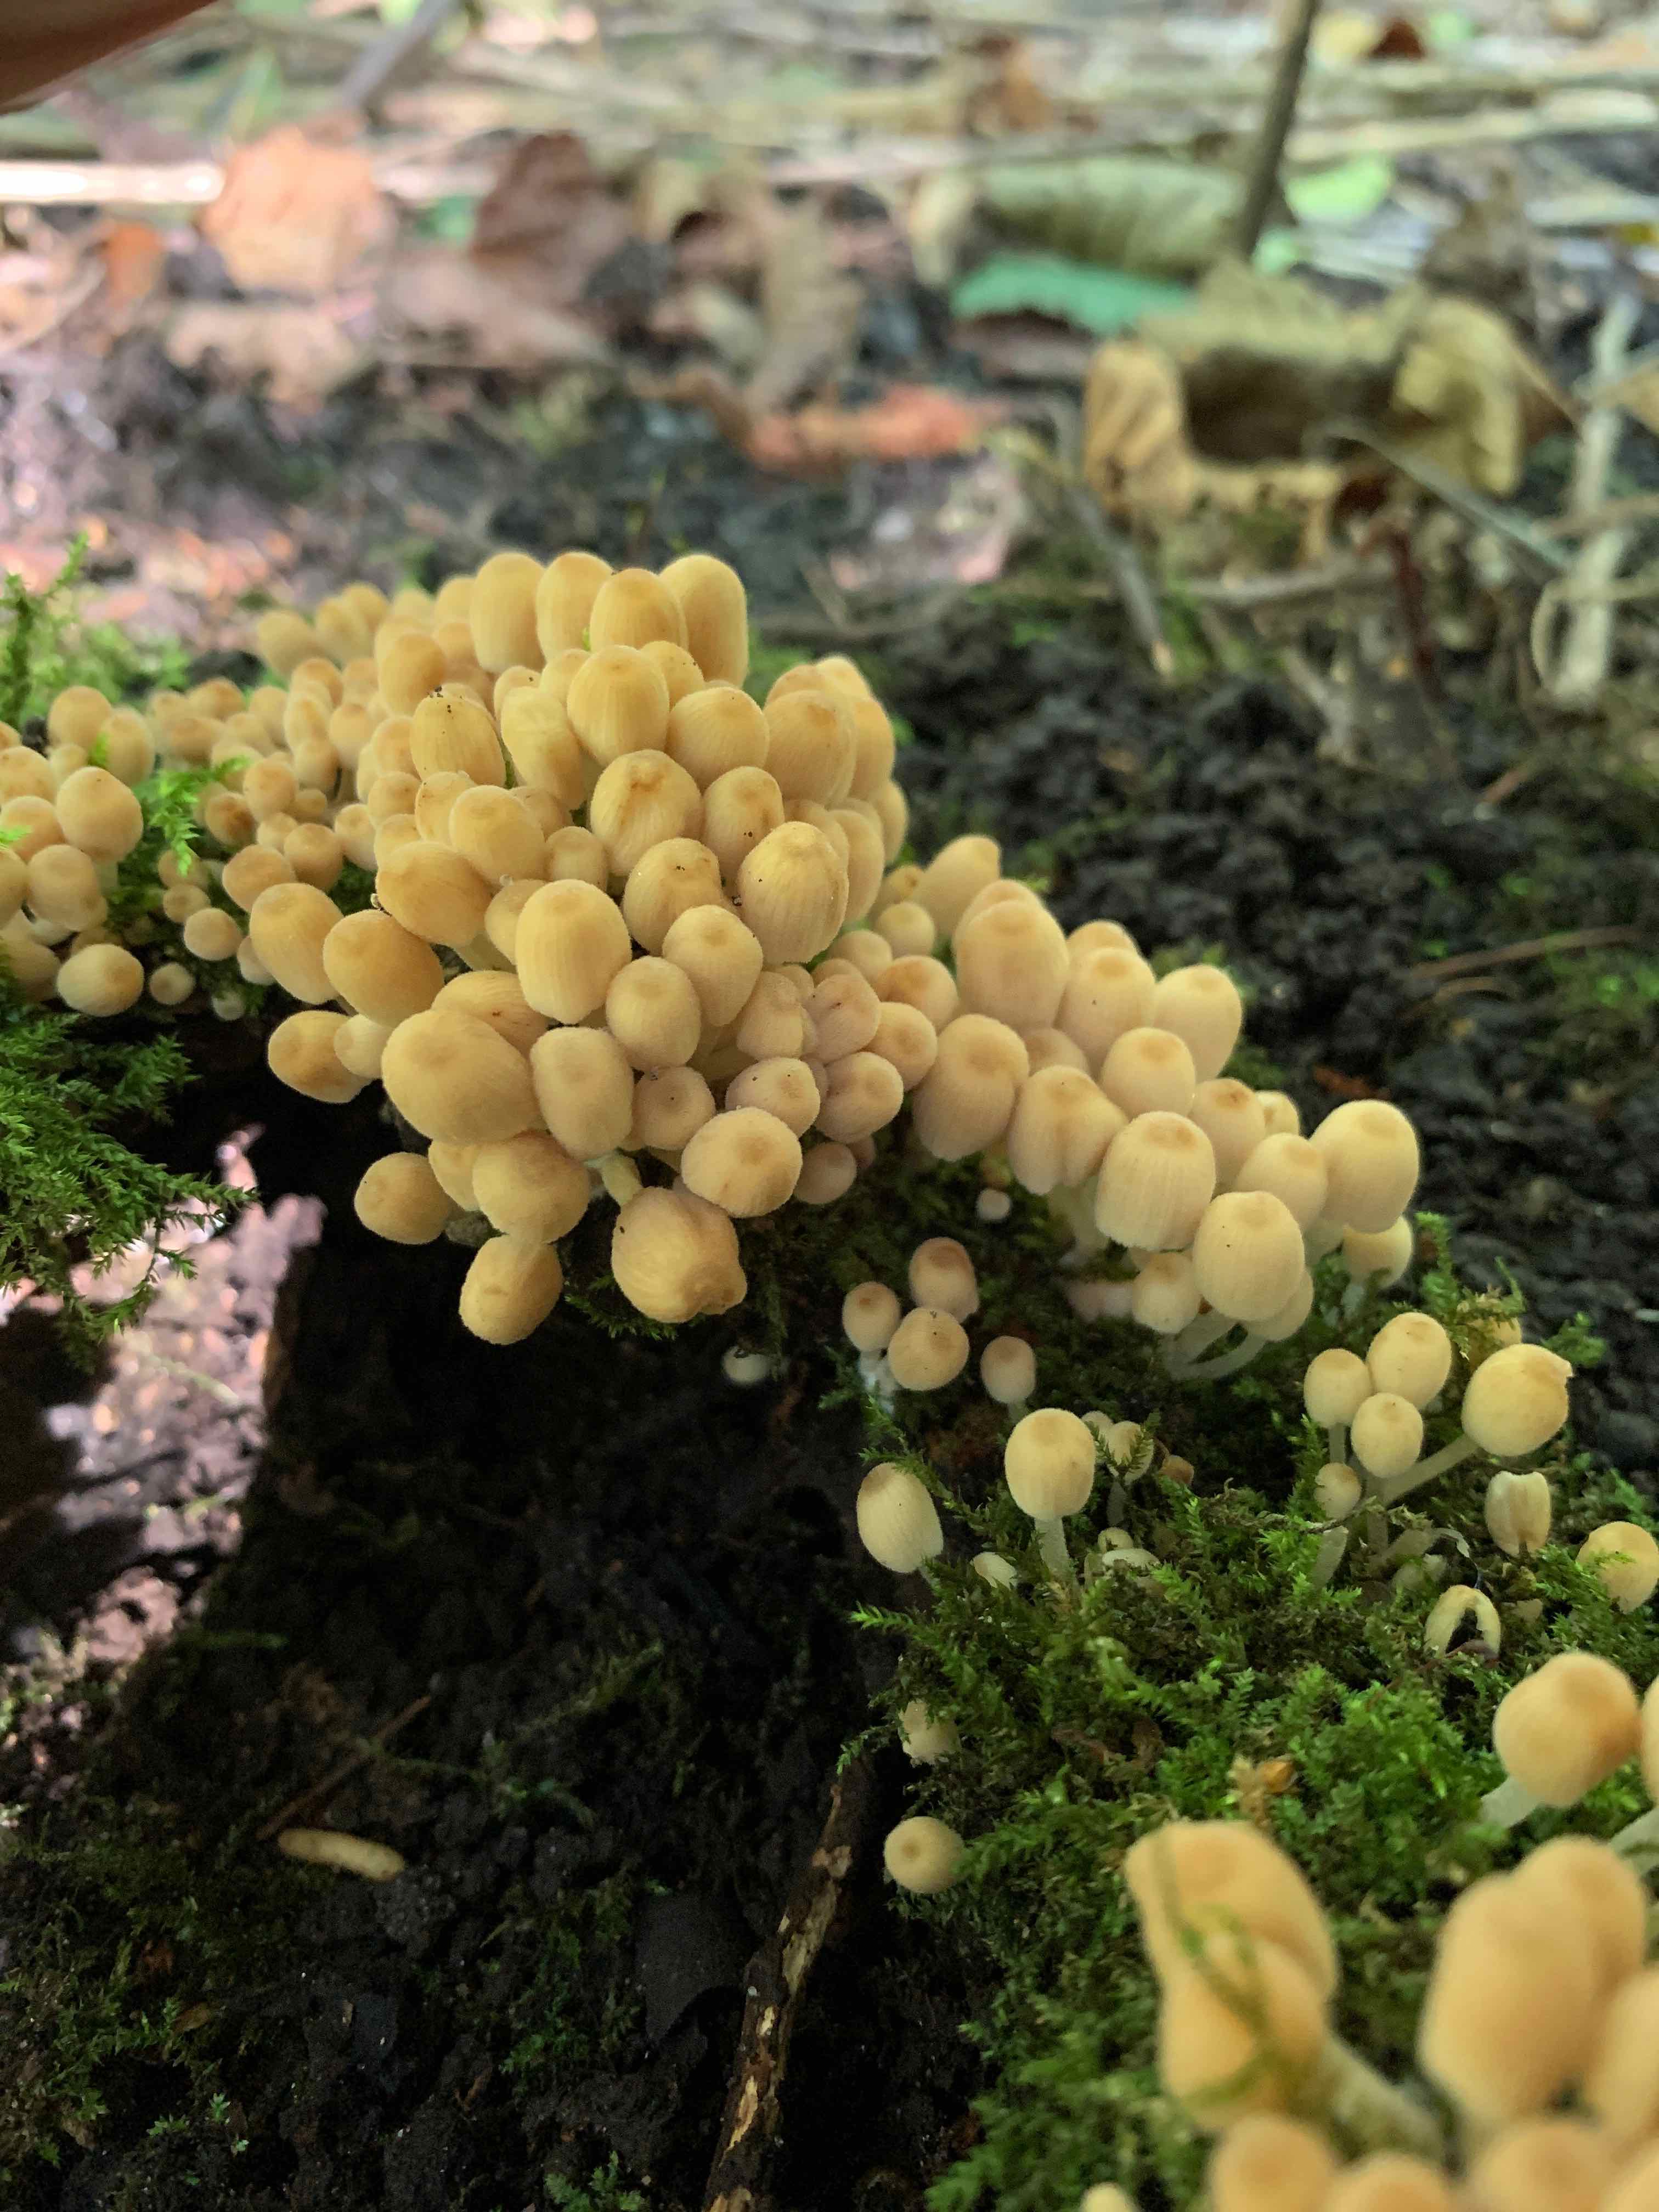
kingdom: Fungi
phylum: Basidiomycota
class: Agaricomycetes
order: Agaricales
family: Psathyrellaceae
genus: Coprinellus
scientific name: Coprinellus disseminatus
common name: bredsået blækhat
